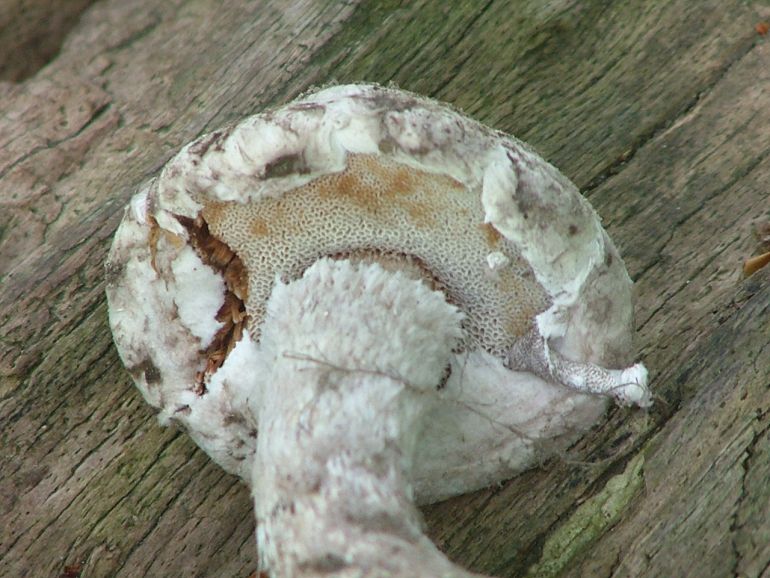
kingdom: Fungi
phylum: Basidiomycota
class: Agaricomycetes
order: Boletales
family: Boletaceae
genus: Strobilomyces
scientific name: Strobilomyces strobilaceus
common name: koglerørhat
